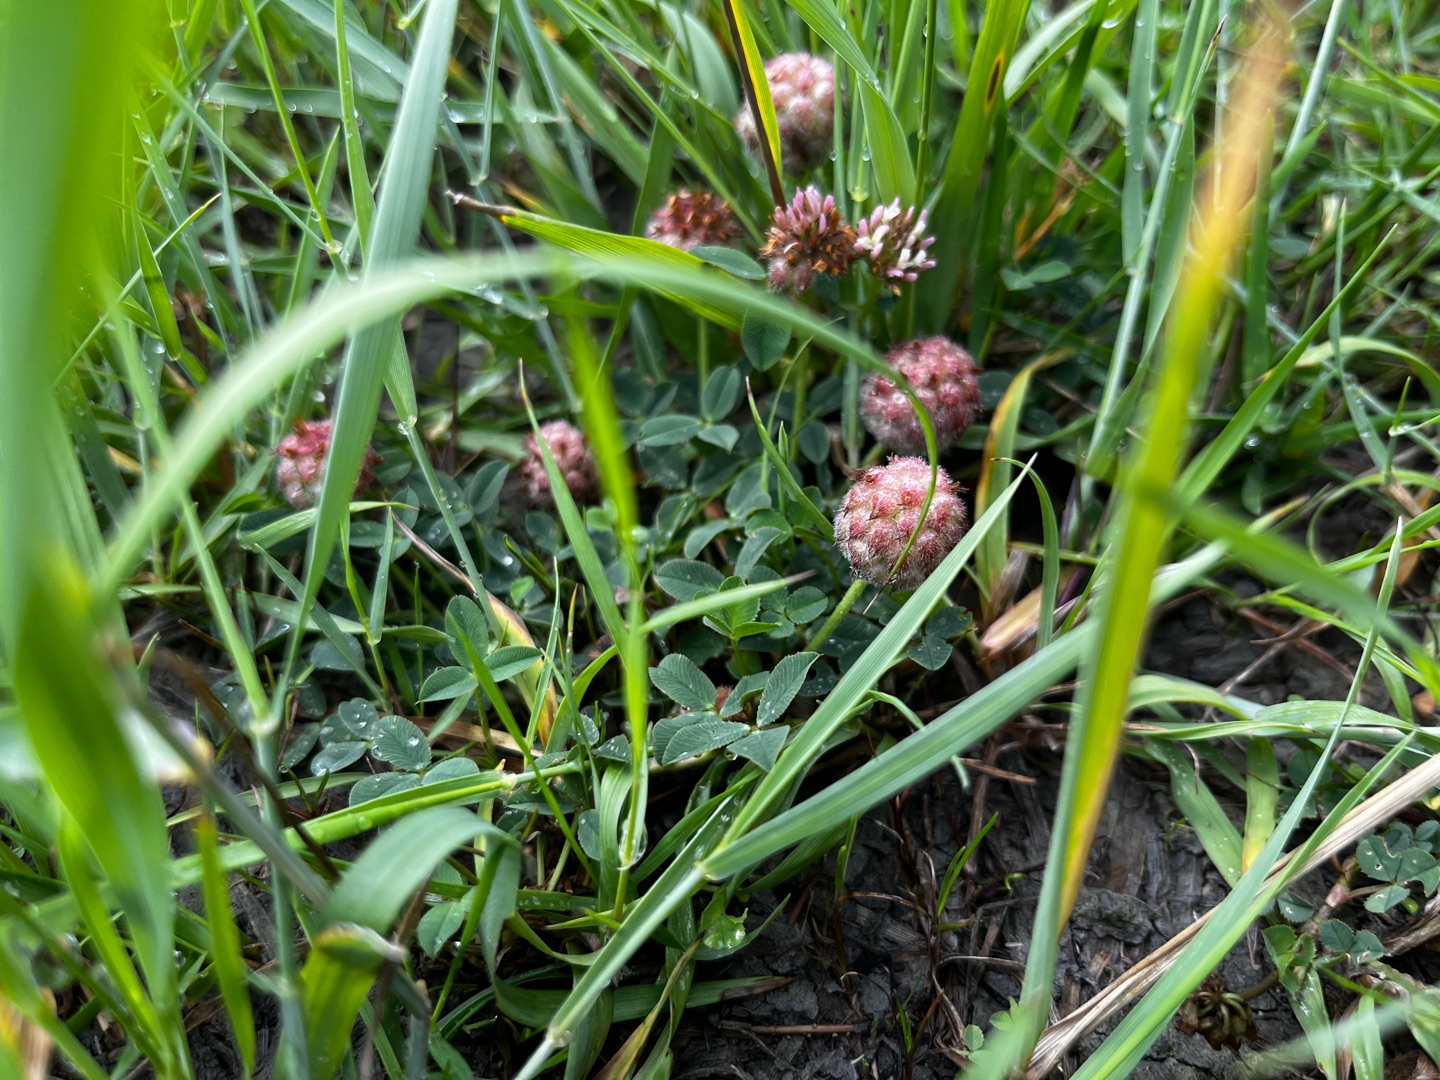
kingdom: Plantae
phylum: Tracheophyta
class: Magnoliopsida
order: Fabales
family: Fabaceae
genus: Trifolium
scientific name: Trifolium fragiferum
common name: Jordbær-kløver
